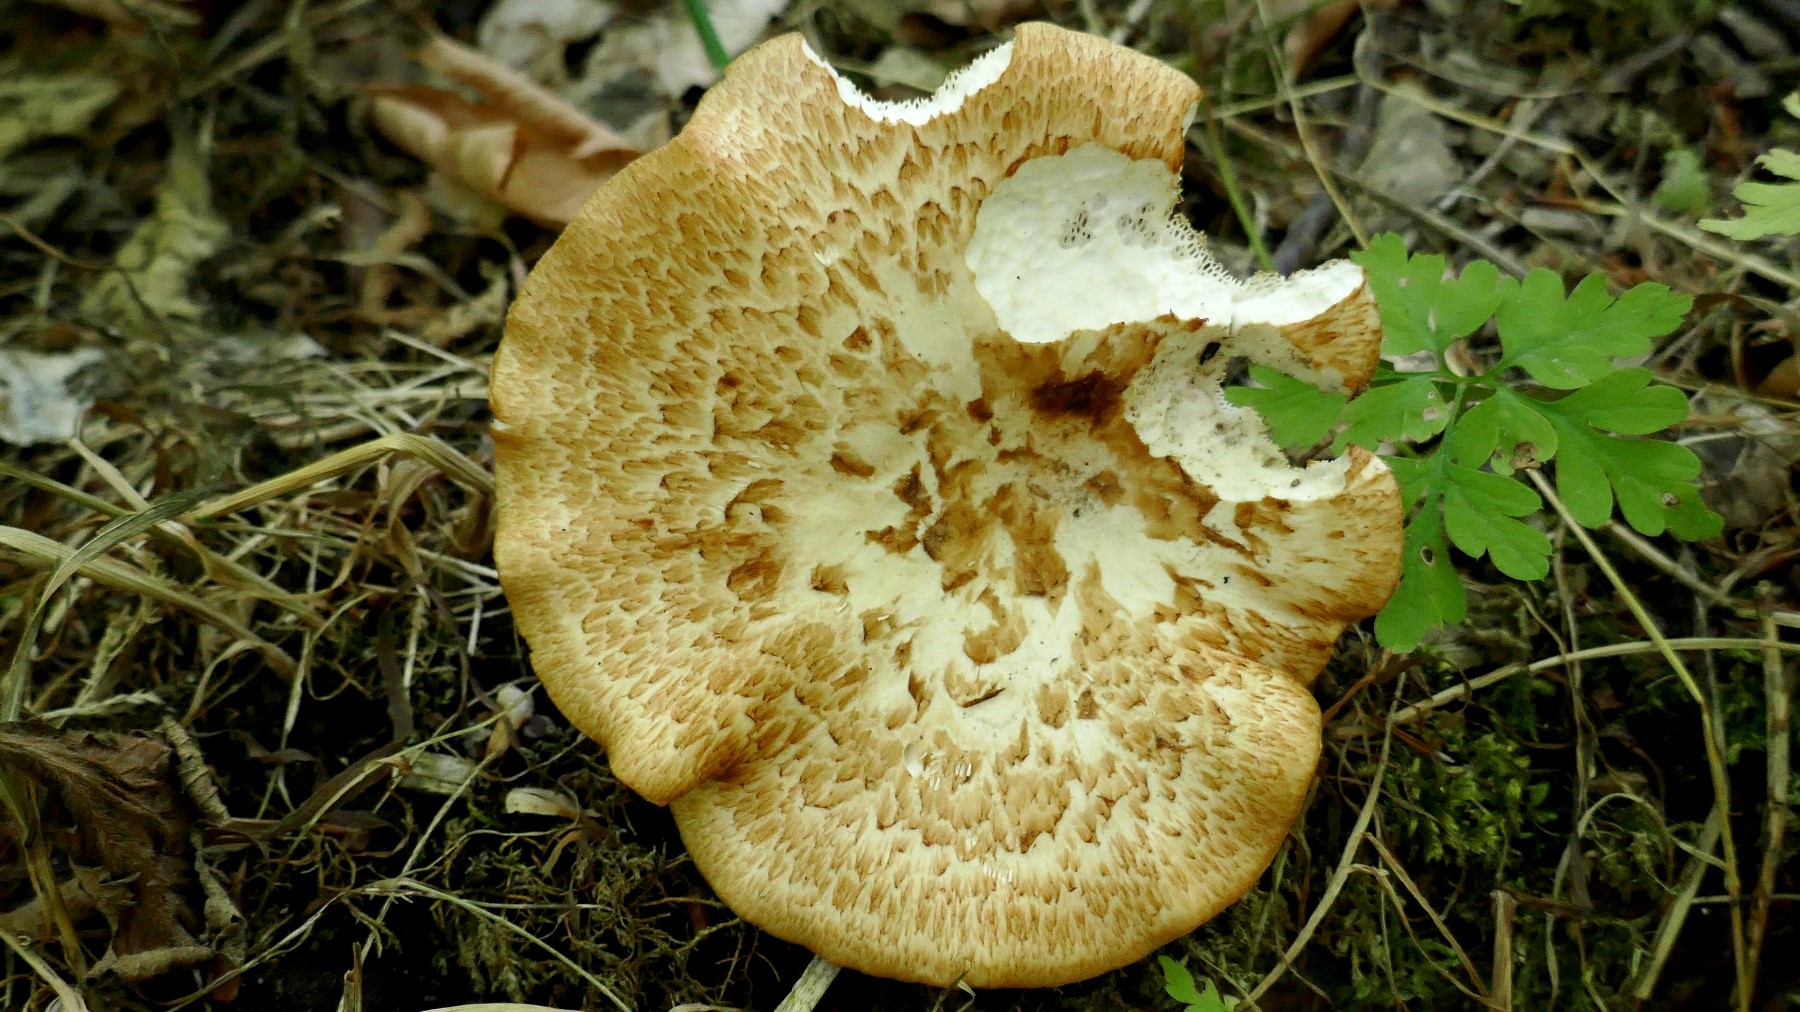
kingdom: Fungi
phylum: Basidiomycota
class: Agaricomycetes
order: Polyporales
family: Polyporaceae
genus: Polyporus
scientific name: Polyporus tuberaster
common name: knoldet stilkporesvamp
